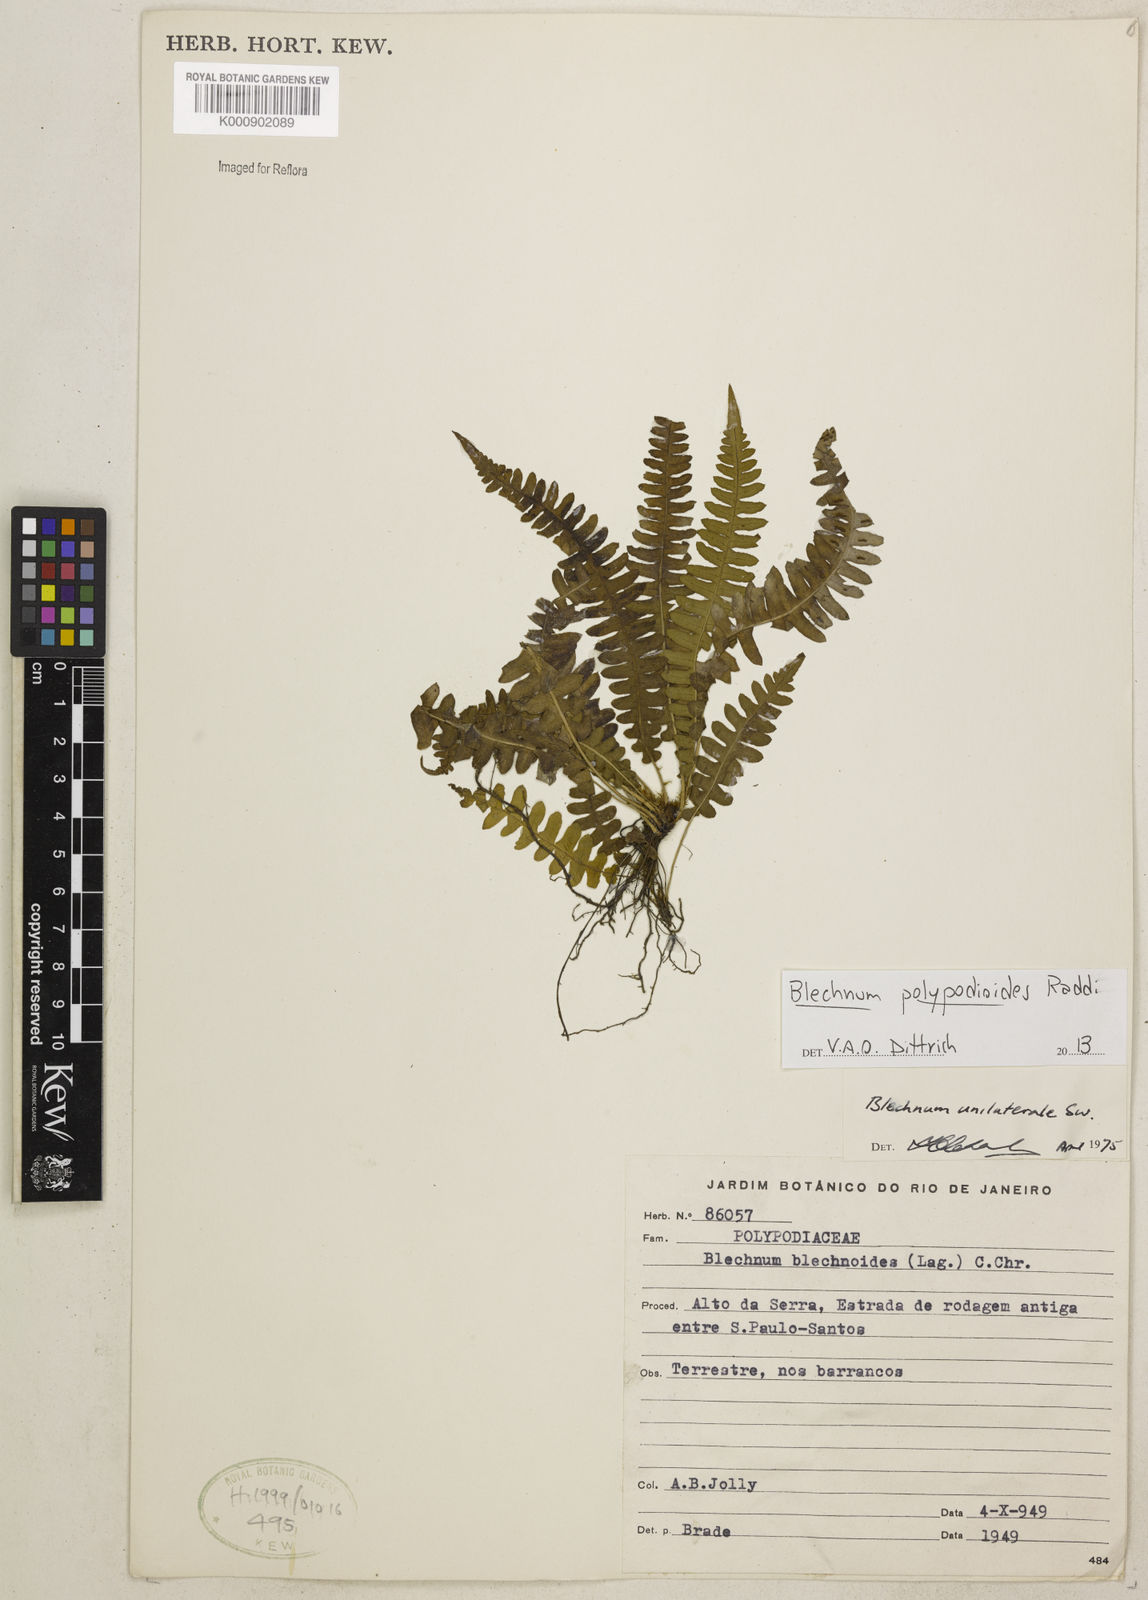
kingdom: Plantae
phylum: Tracheophyta
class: Polypodiopsida
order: Polypodiales
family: Blechnaceae
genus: Blechnum
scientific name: Blechnum polypodioides
